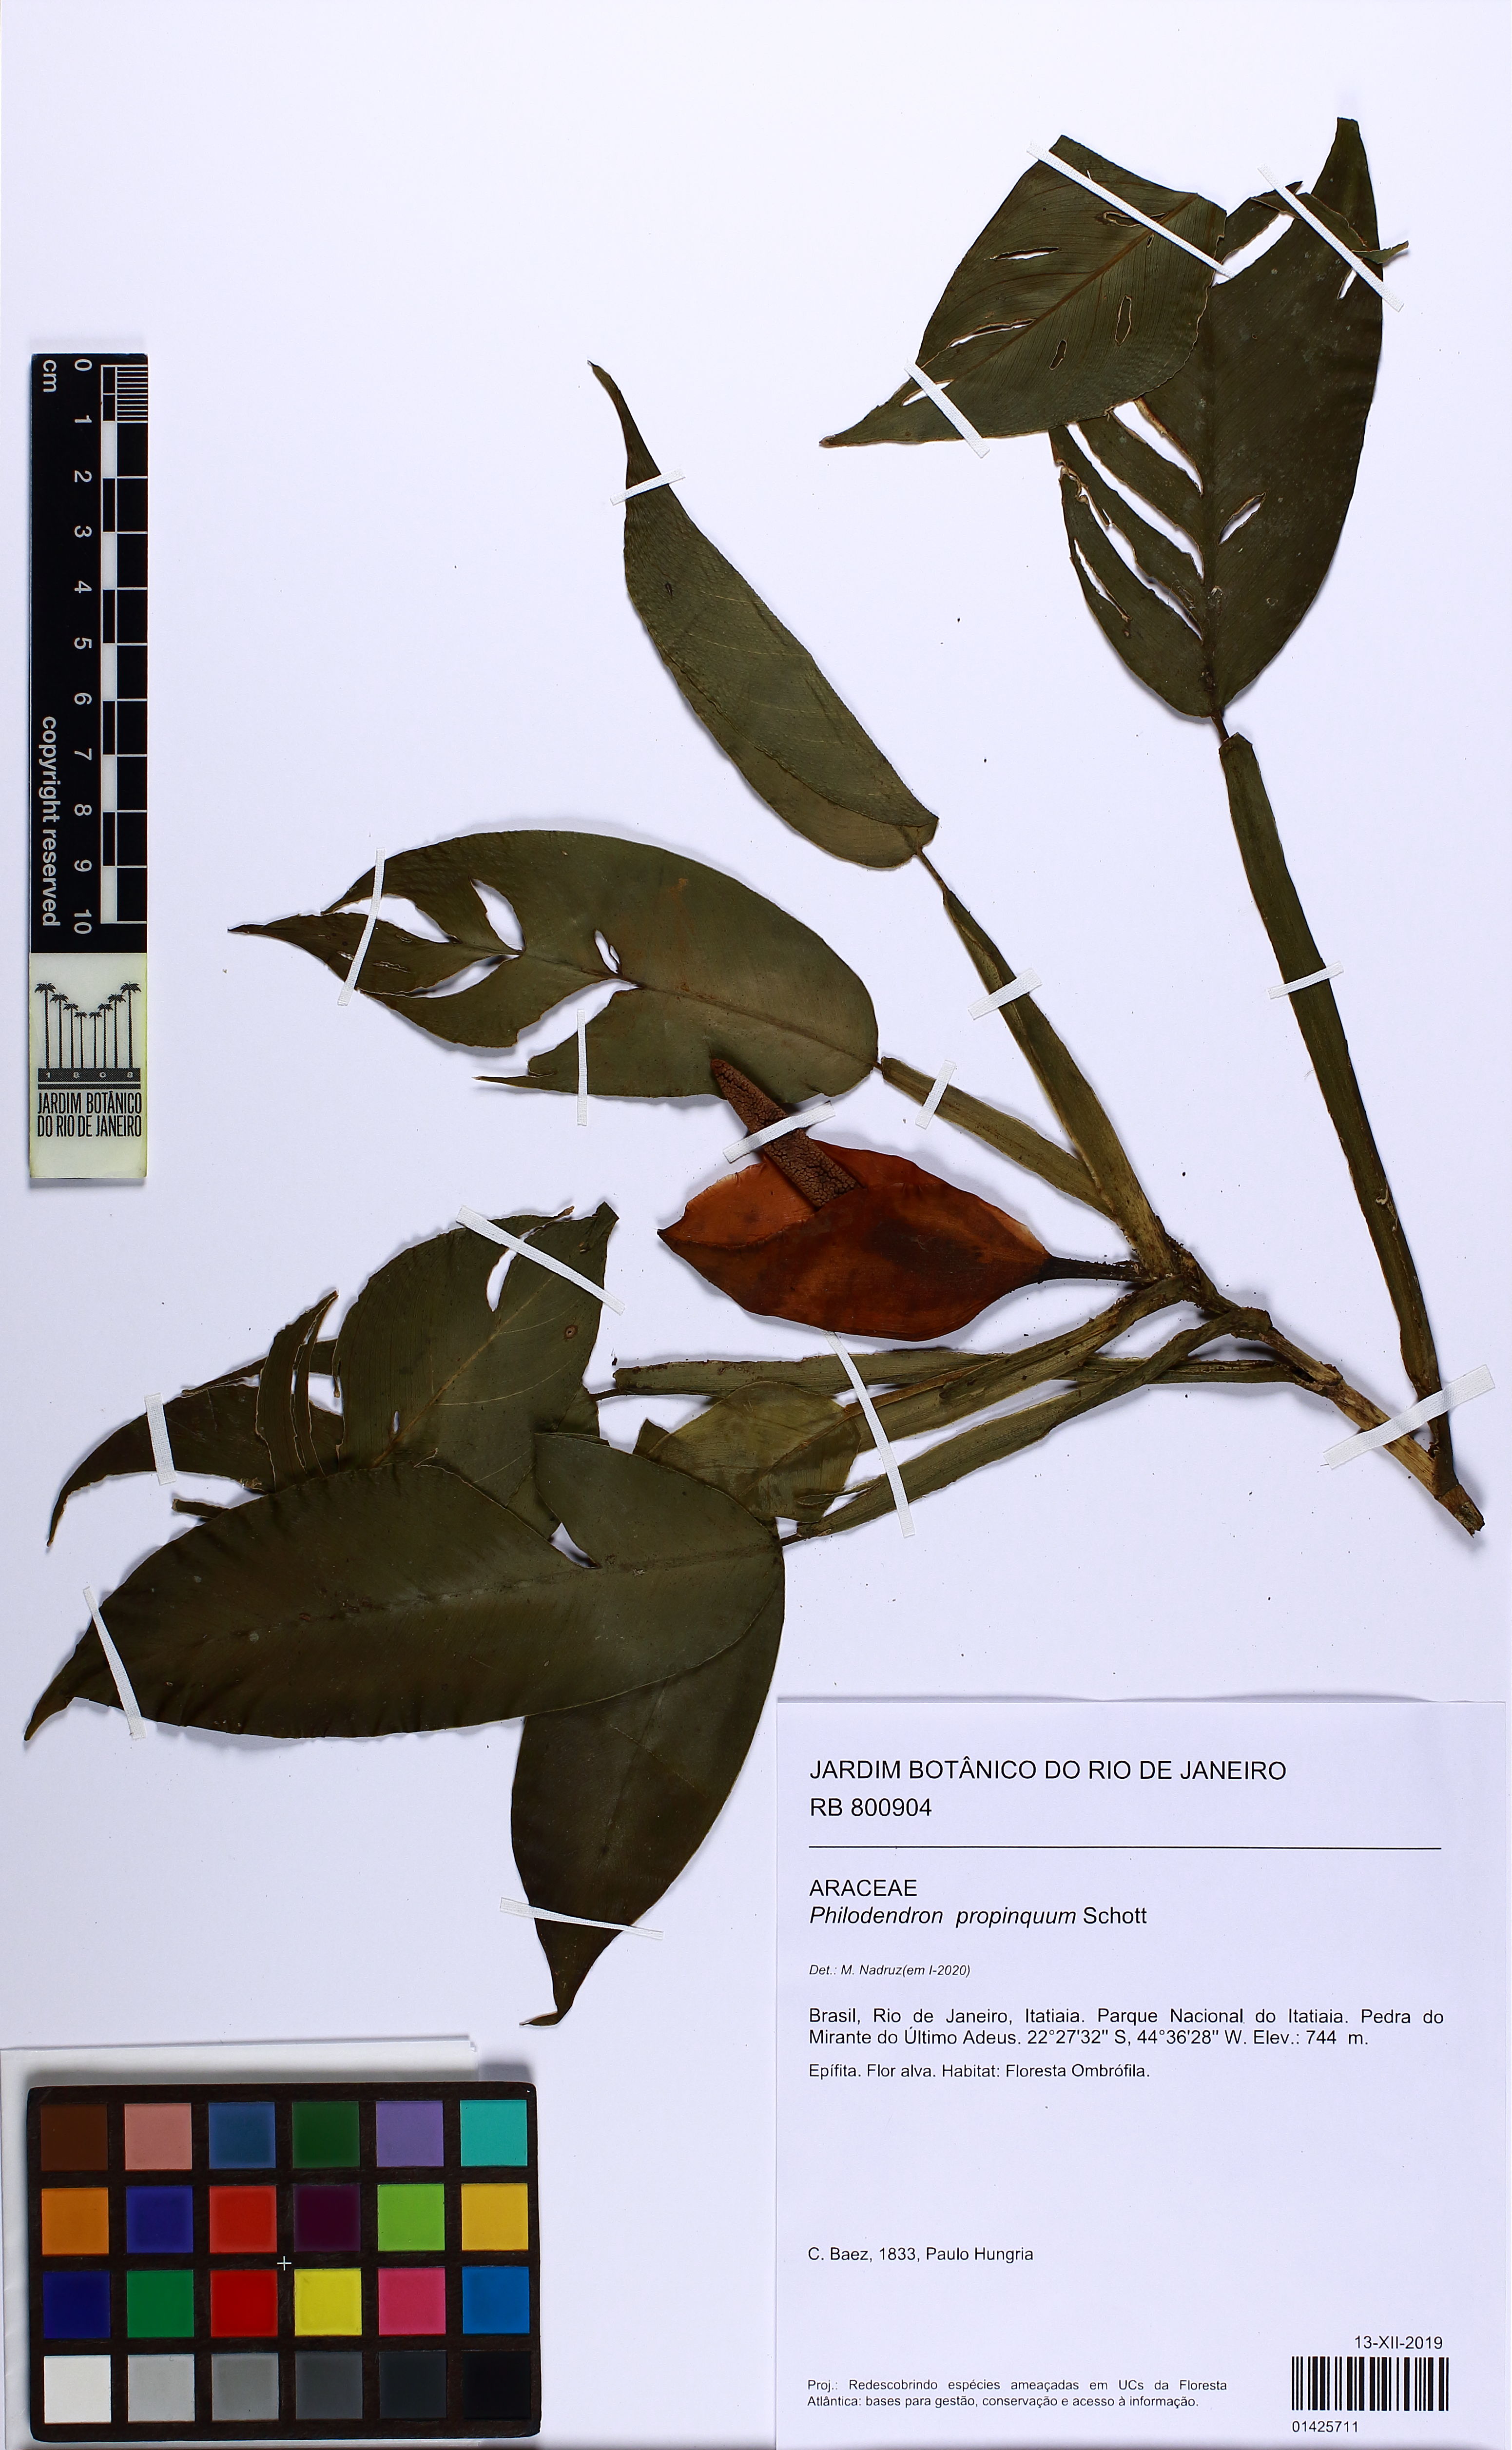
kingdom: Plantae
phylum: Tracheophyta
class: Liliopsida
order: Alismatales
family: Araceae
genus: Philodendron
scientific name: Philodendron propinquum
